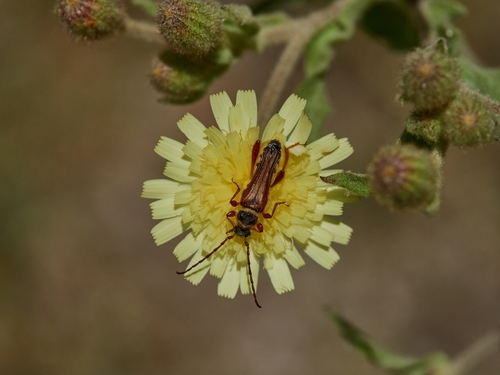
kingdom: Animalia
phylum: Arthropoda
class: Insecta
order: Coleoptera
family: Cerambycidae
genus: Stenopterus
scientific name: Stenopterus mauritanicus
